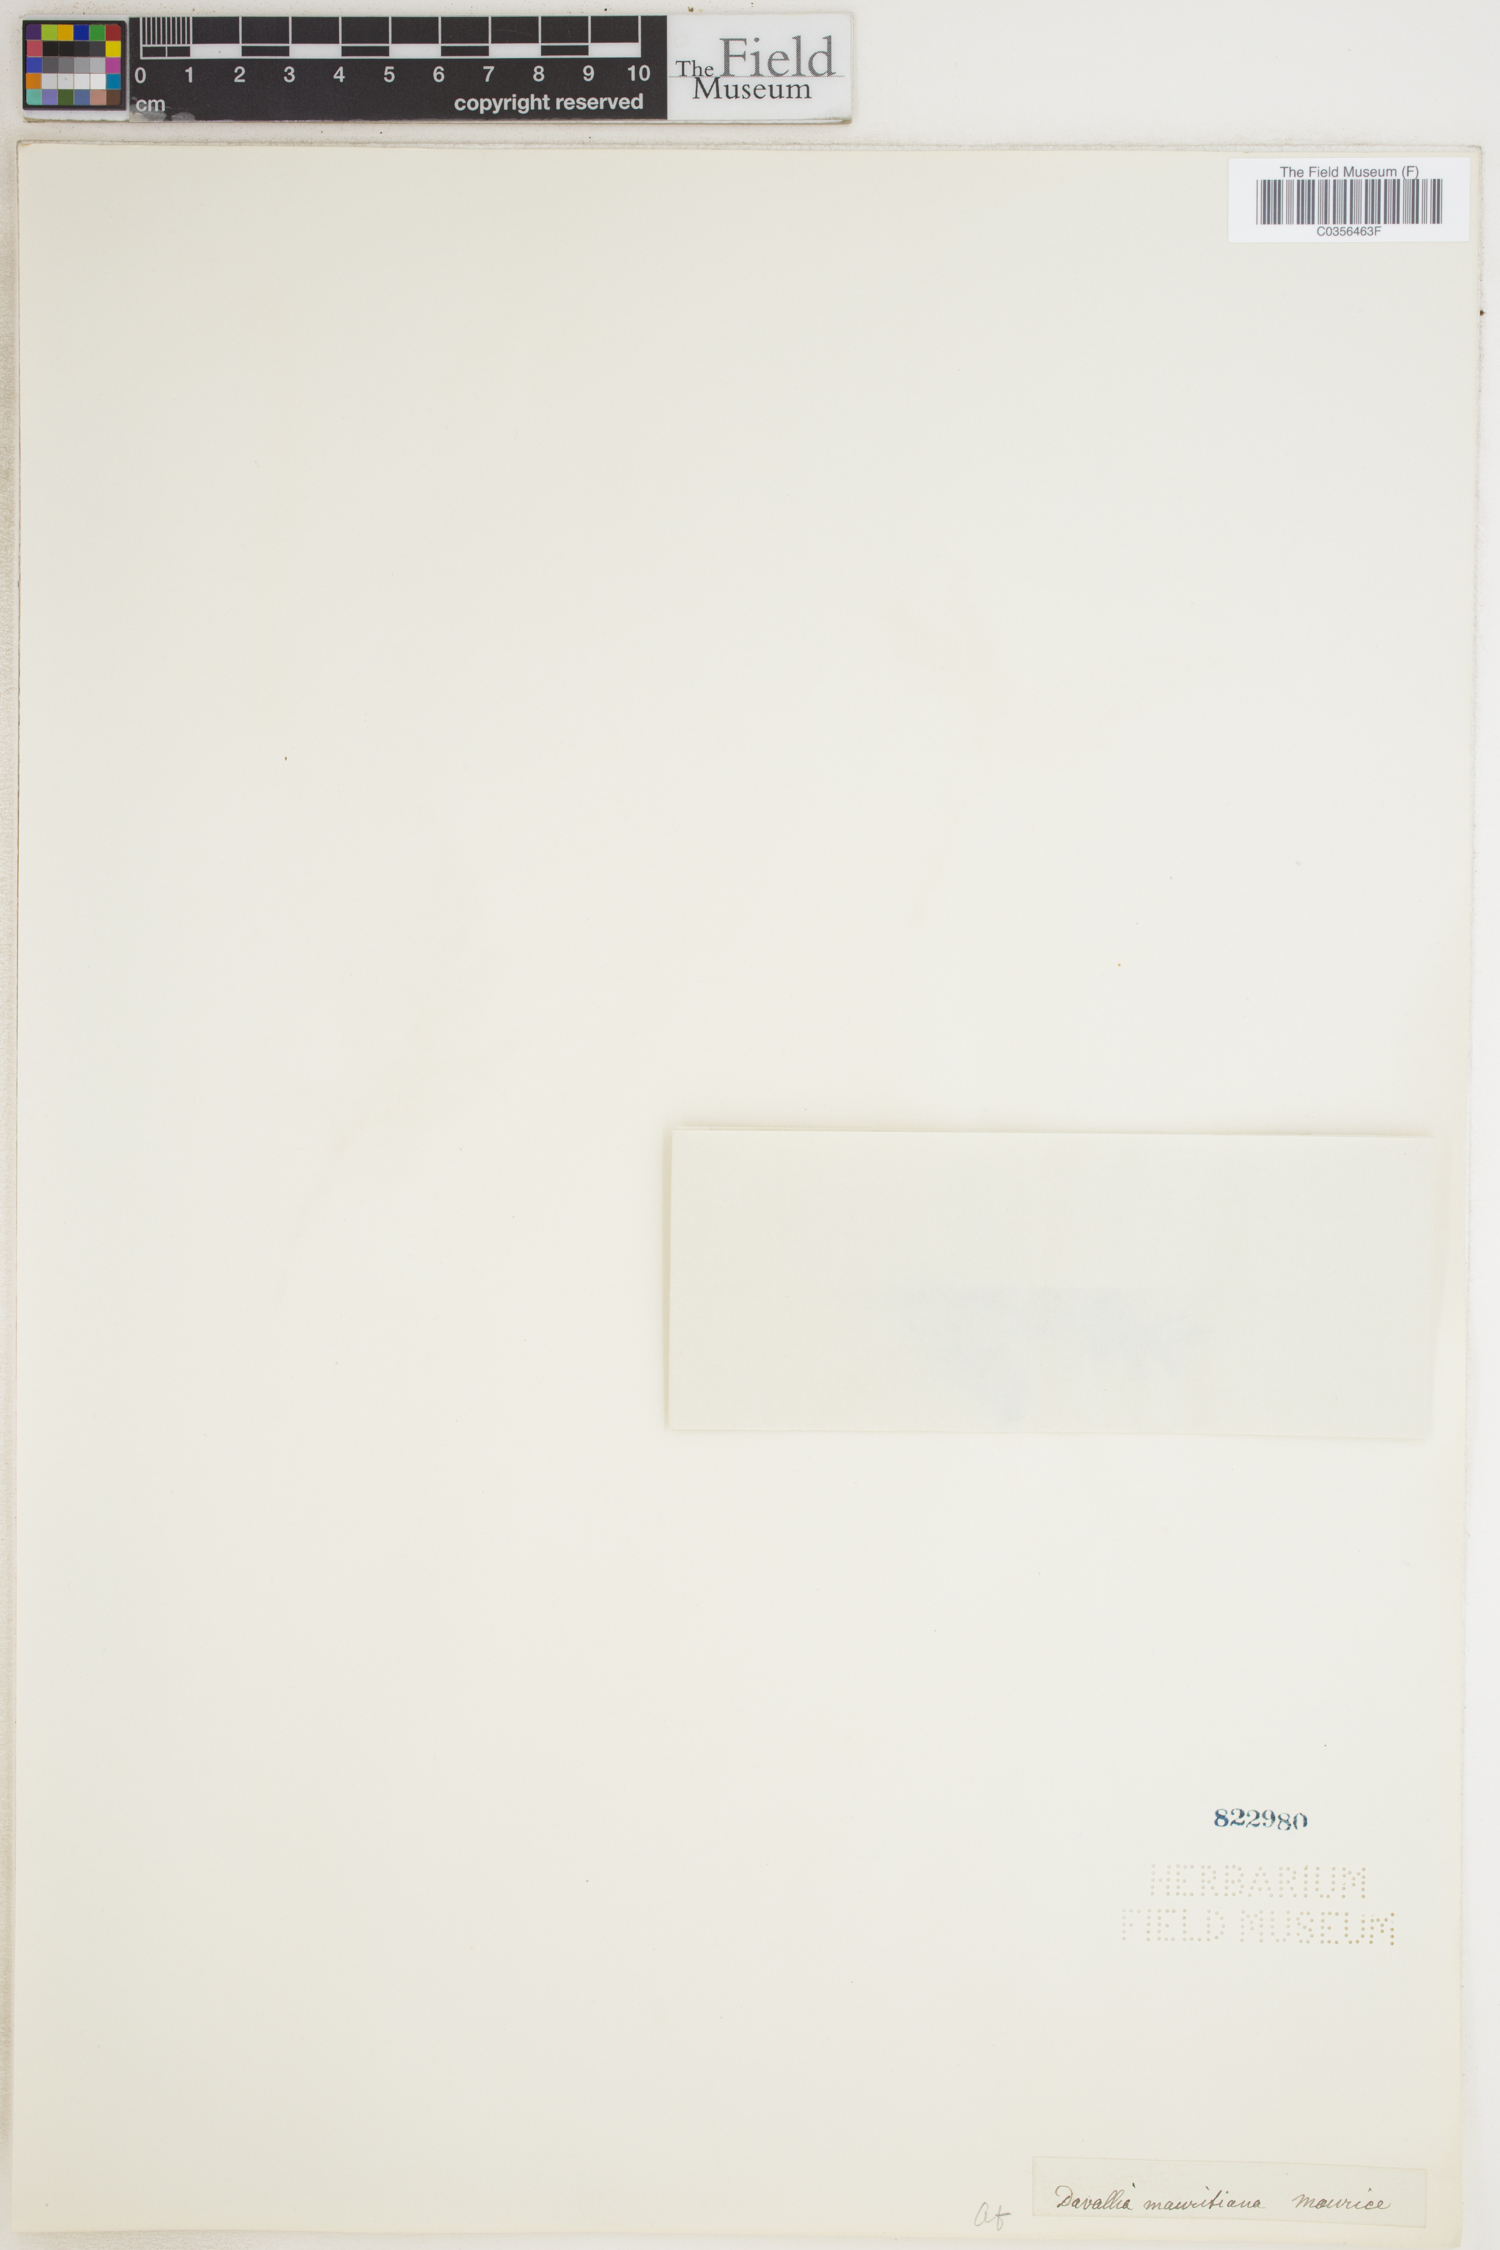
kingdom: Plantae
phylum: Tracheophyta
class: Polypodiopsida
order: Polypodiales
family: Davalliaceae
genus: Davallia
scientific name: Davallia chaerophylloides
